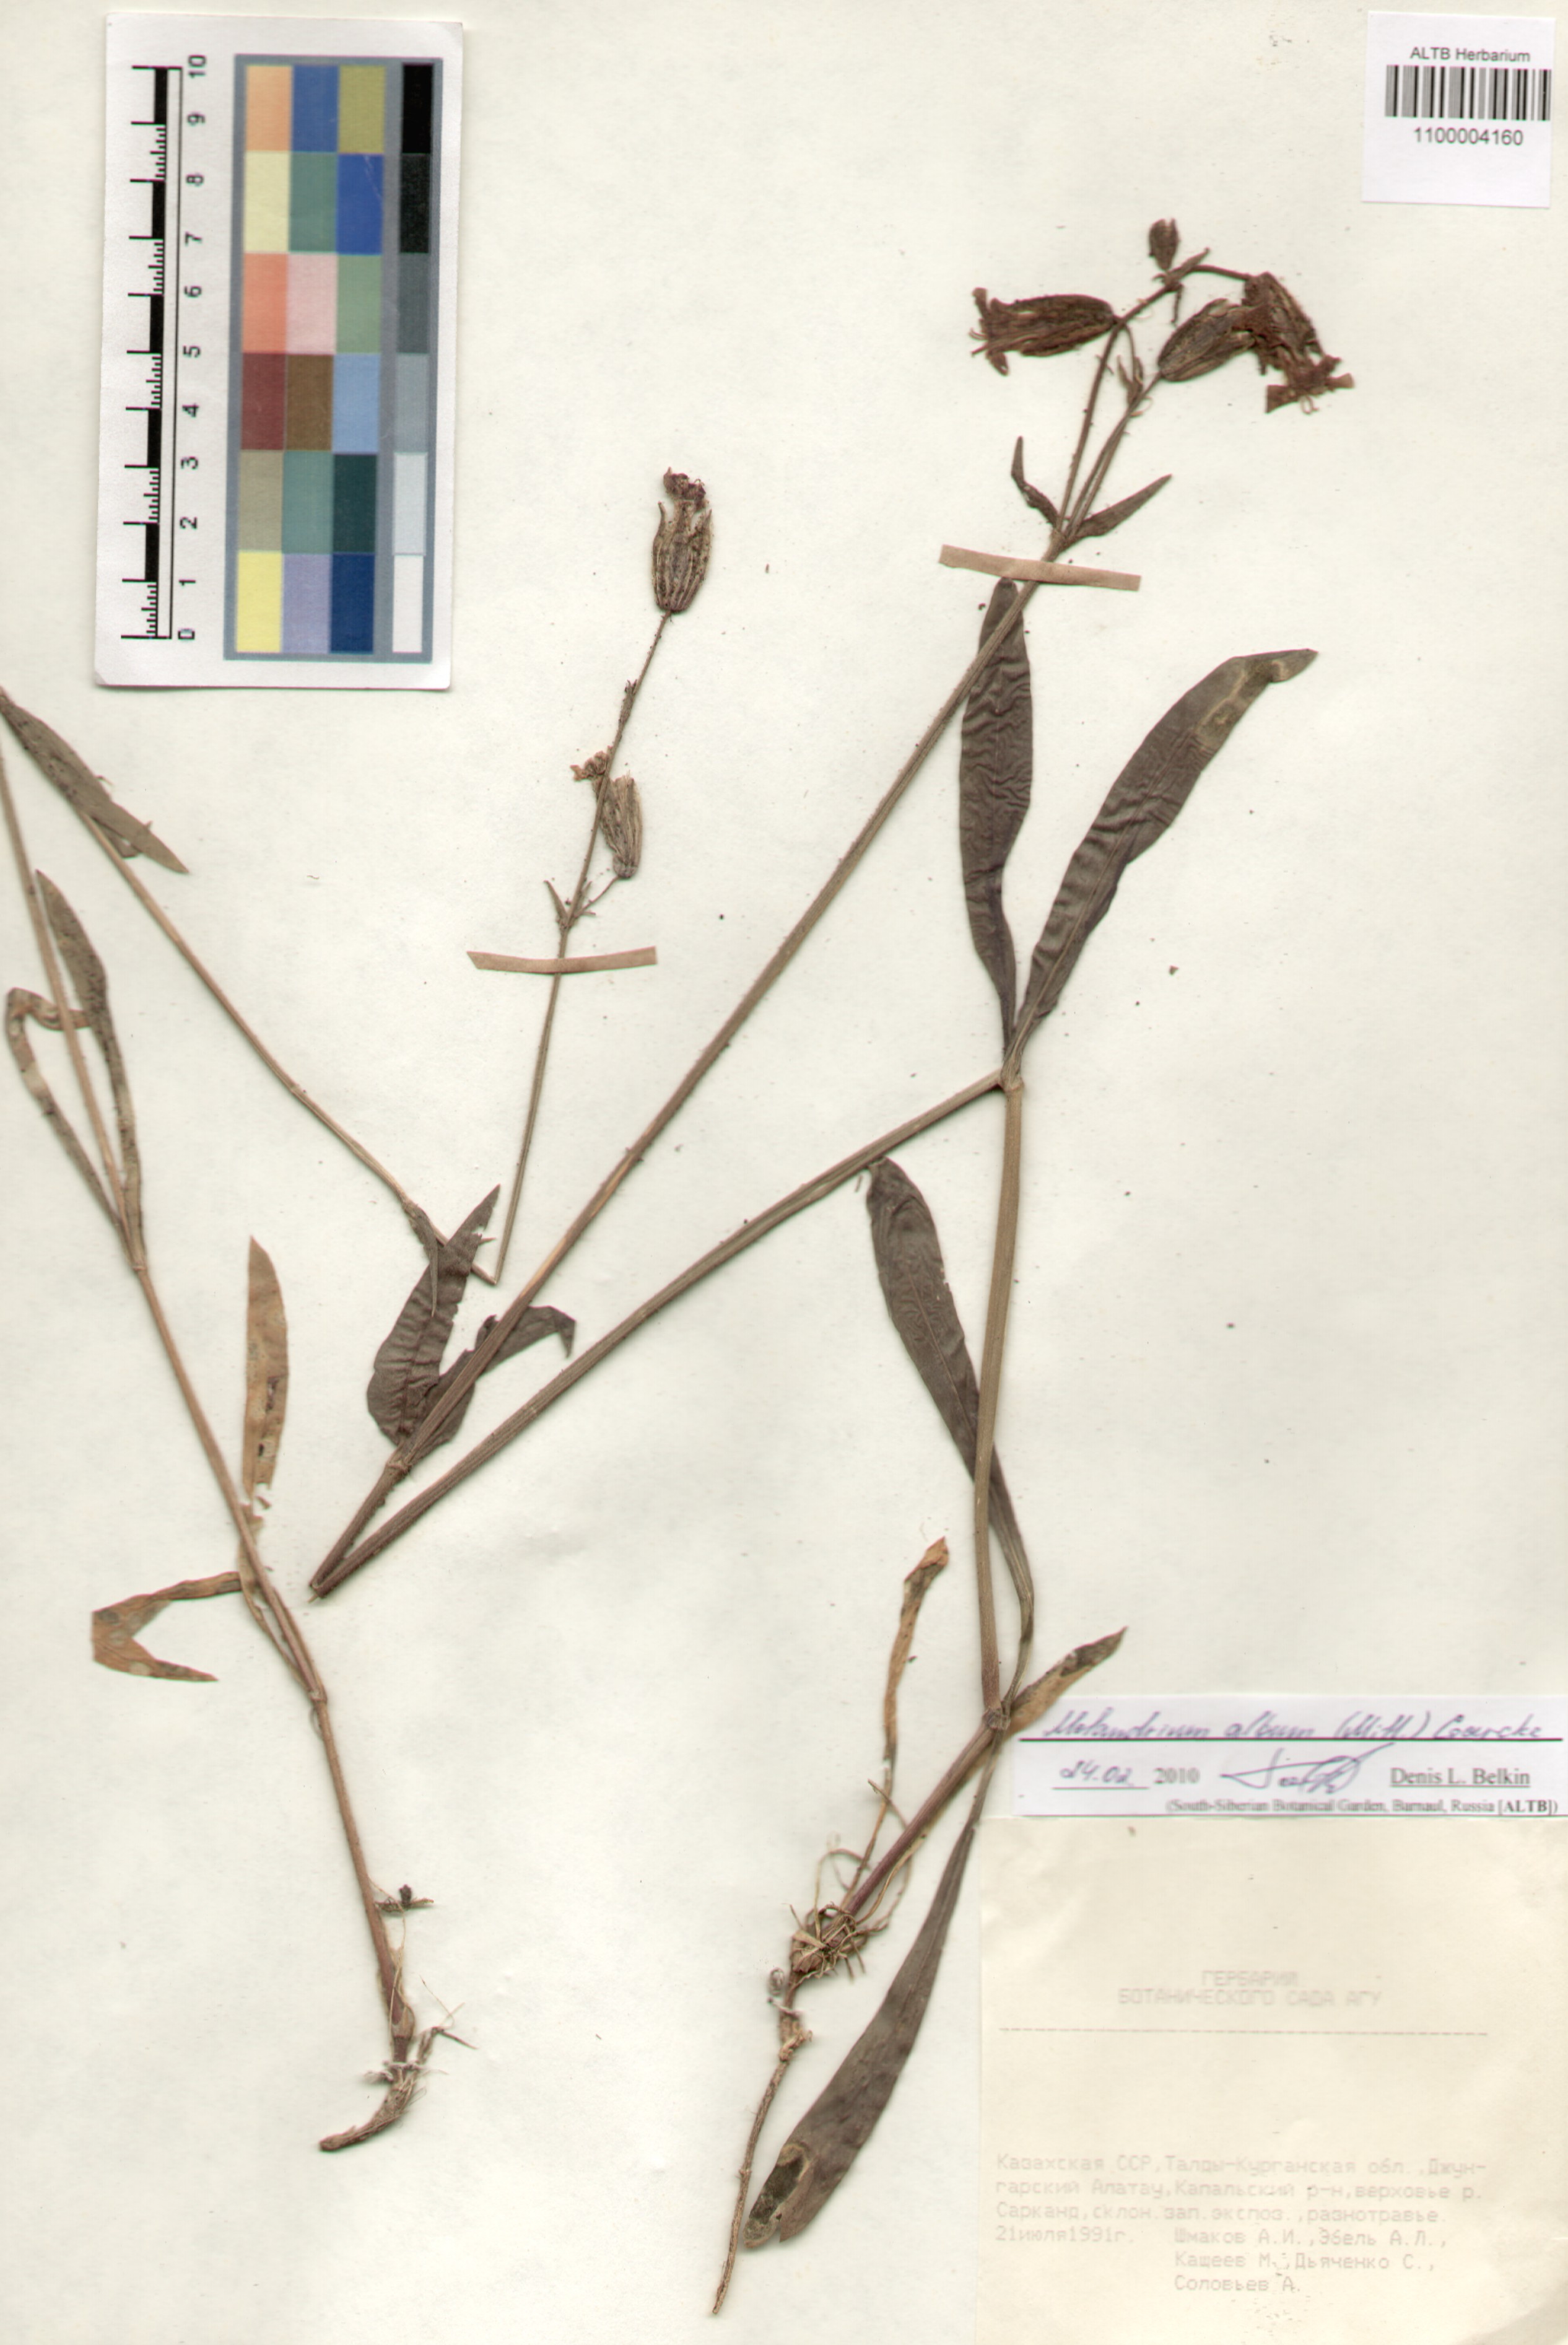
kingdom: Plantae
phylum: Tracheophyta
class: Magnoliopsida
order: Caryophyllales
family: Caryophyllaceae
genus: Silene
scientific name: Silene latifolia
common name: White campion
